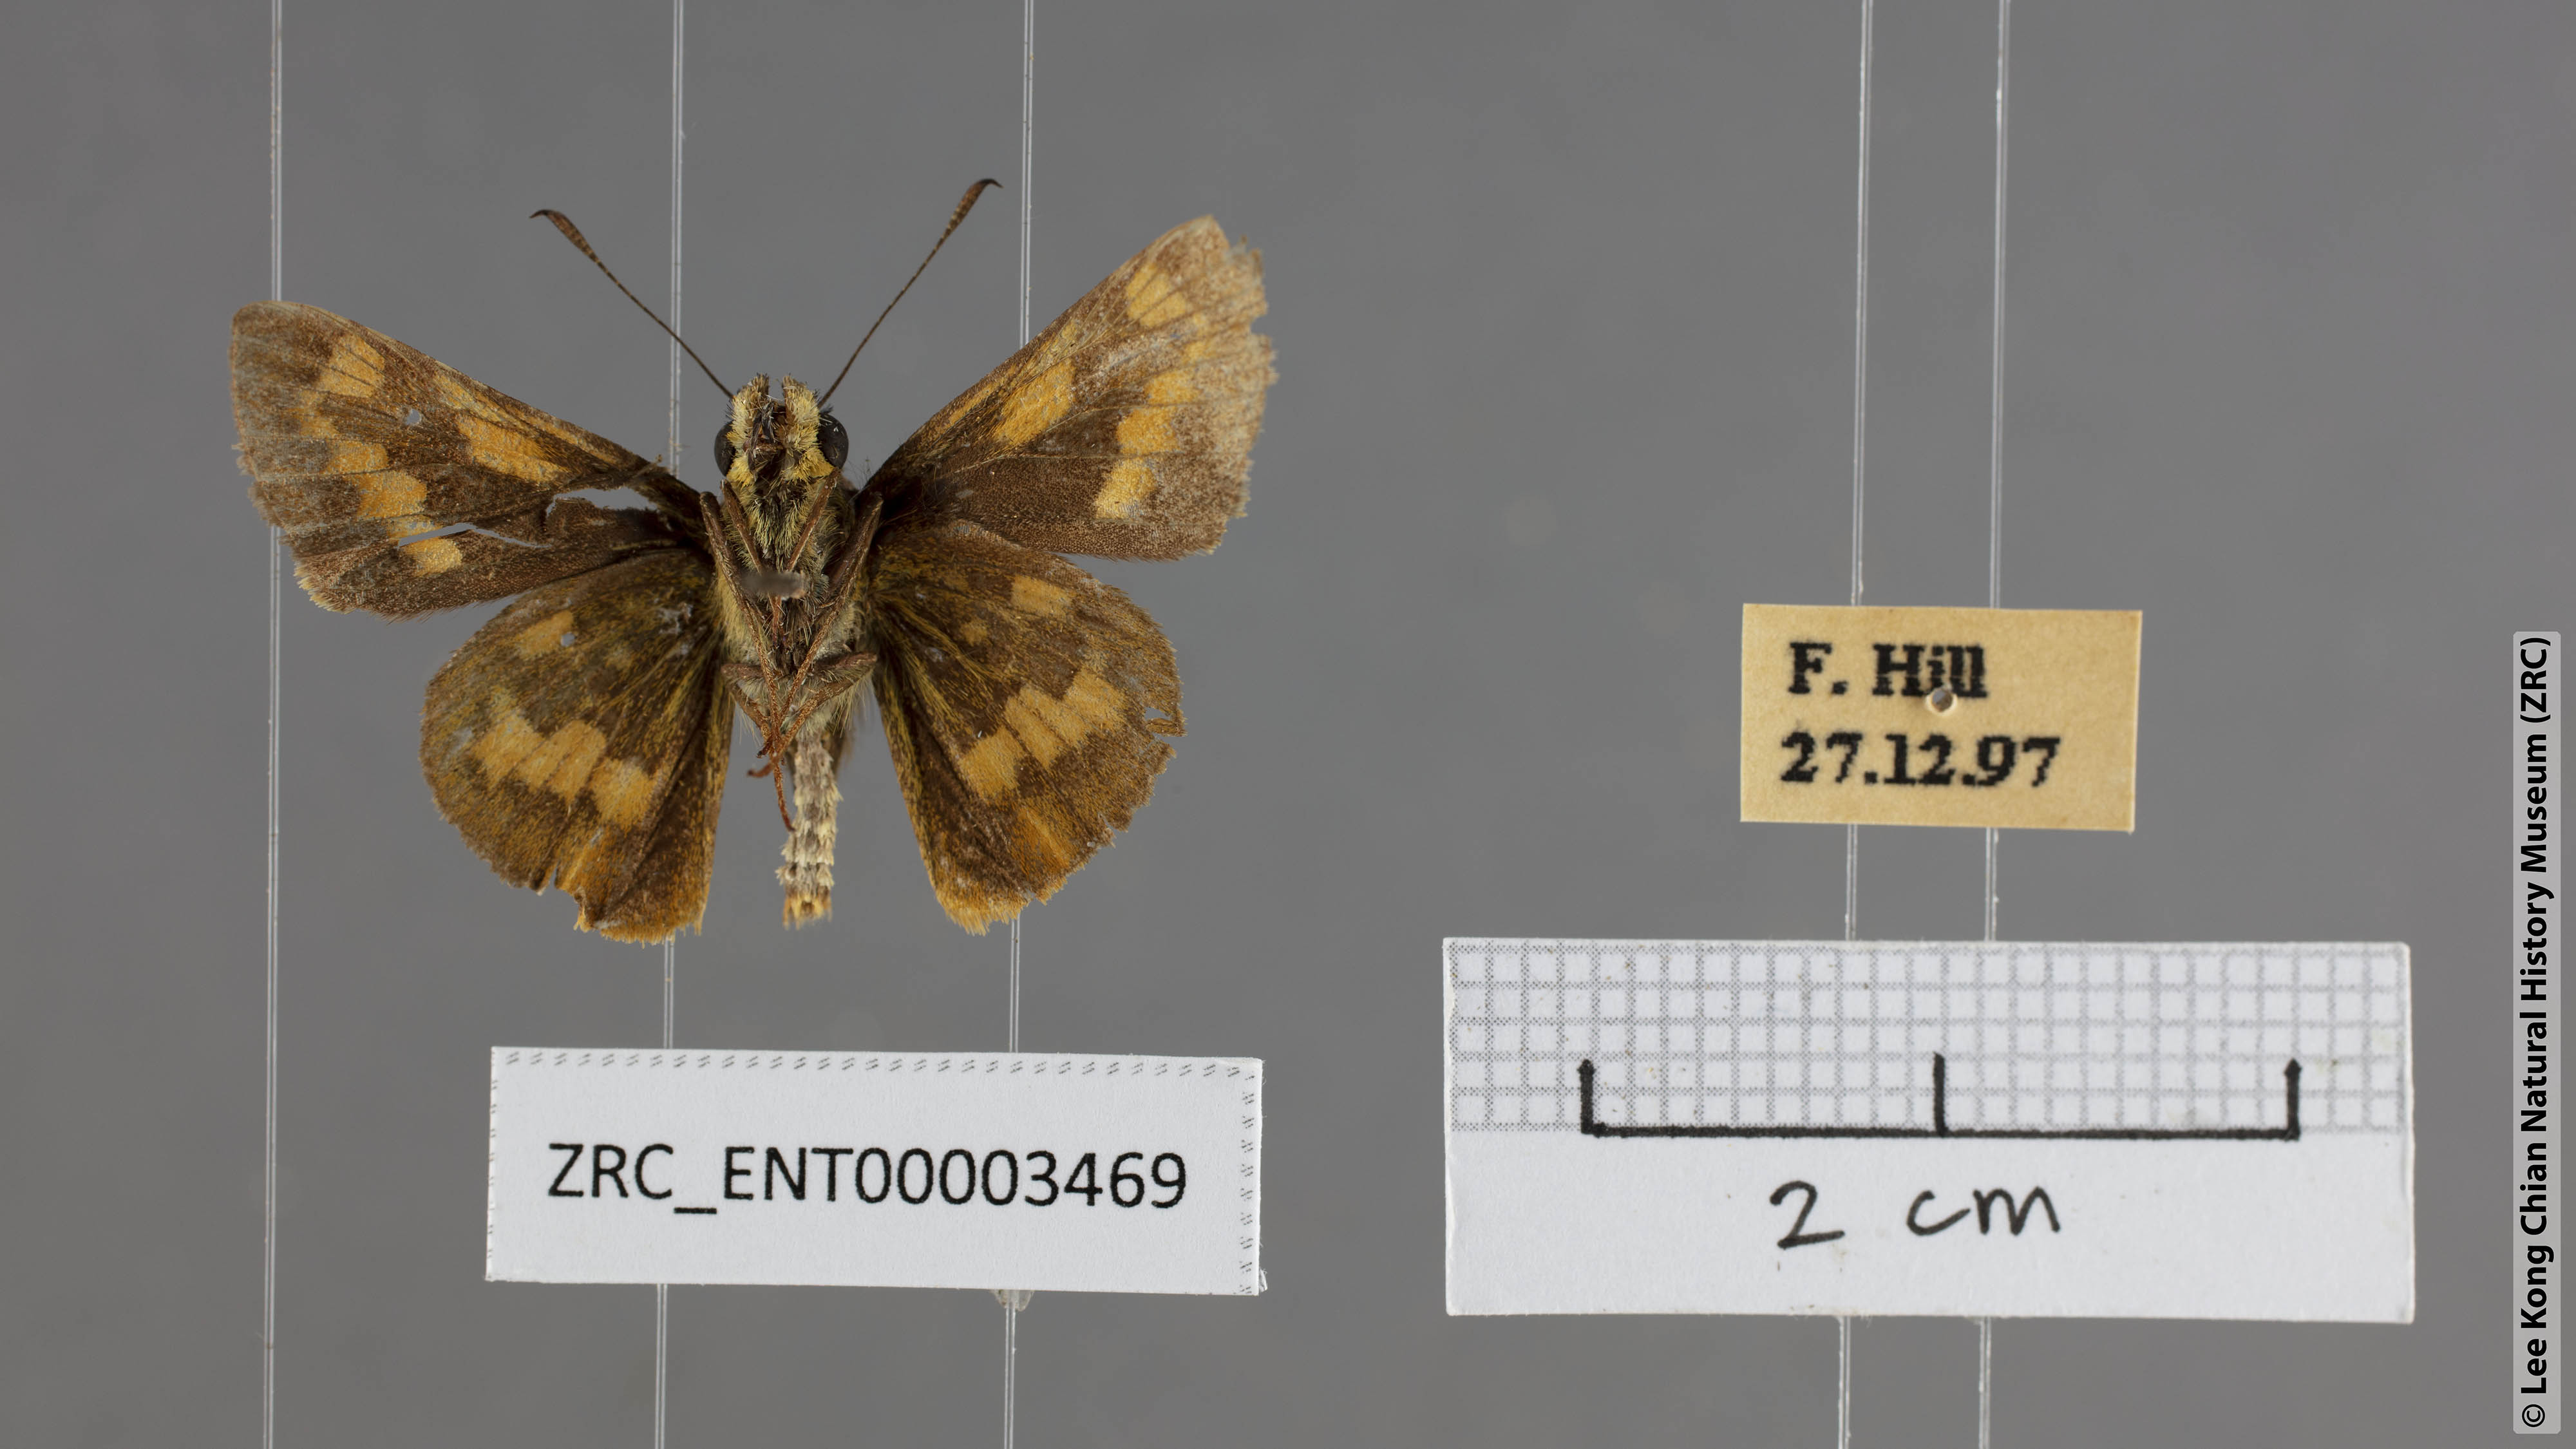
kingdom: Animalia
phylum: Arthropoda
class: Insecta
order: Lepidoptera
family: Hesperiidae
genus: Potanthus
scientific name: Potanthus lydia
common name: Lydia dart
